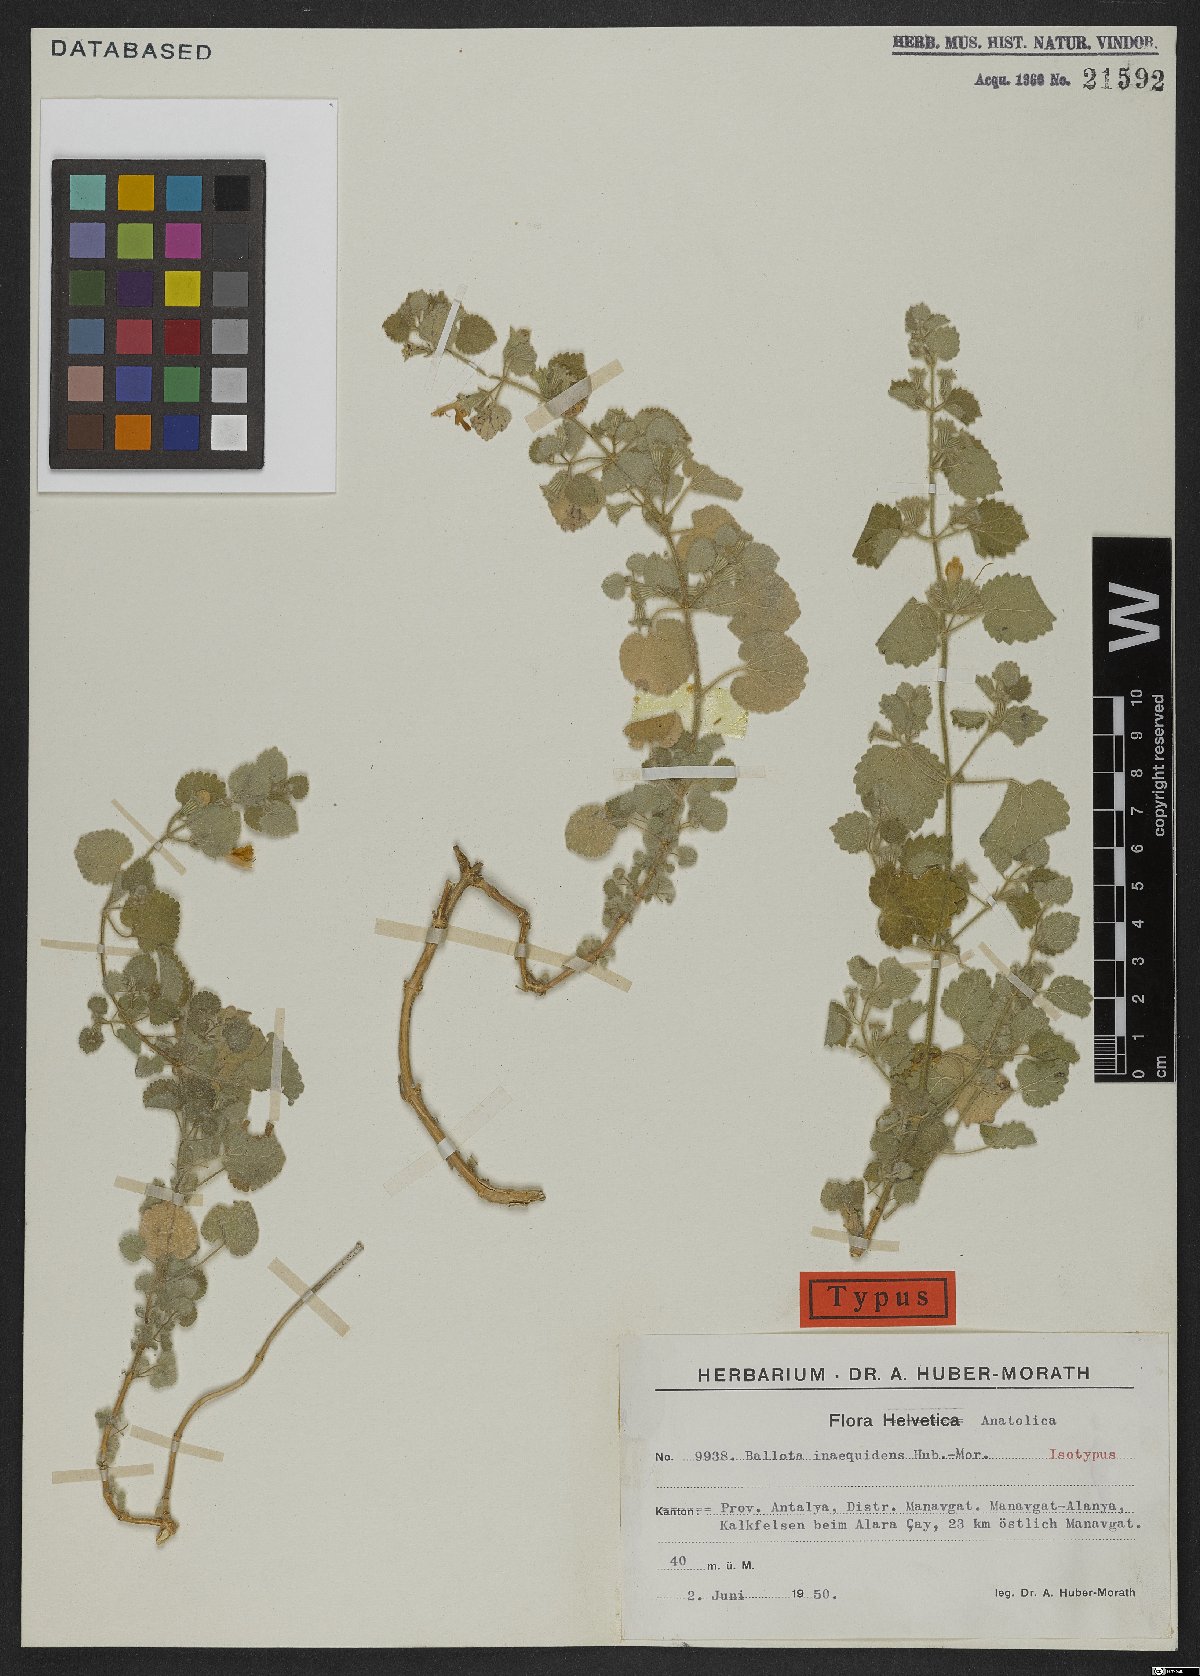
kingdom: Plantae
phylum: Tracheophyta
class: Magnoliopsida
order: Lamiales
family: Lamiaceae
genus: Pseudodictamnus
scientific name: Pseudodictamnus inaequidens
